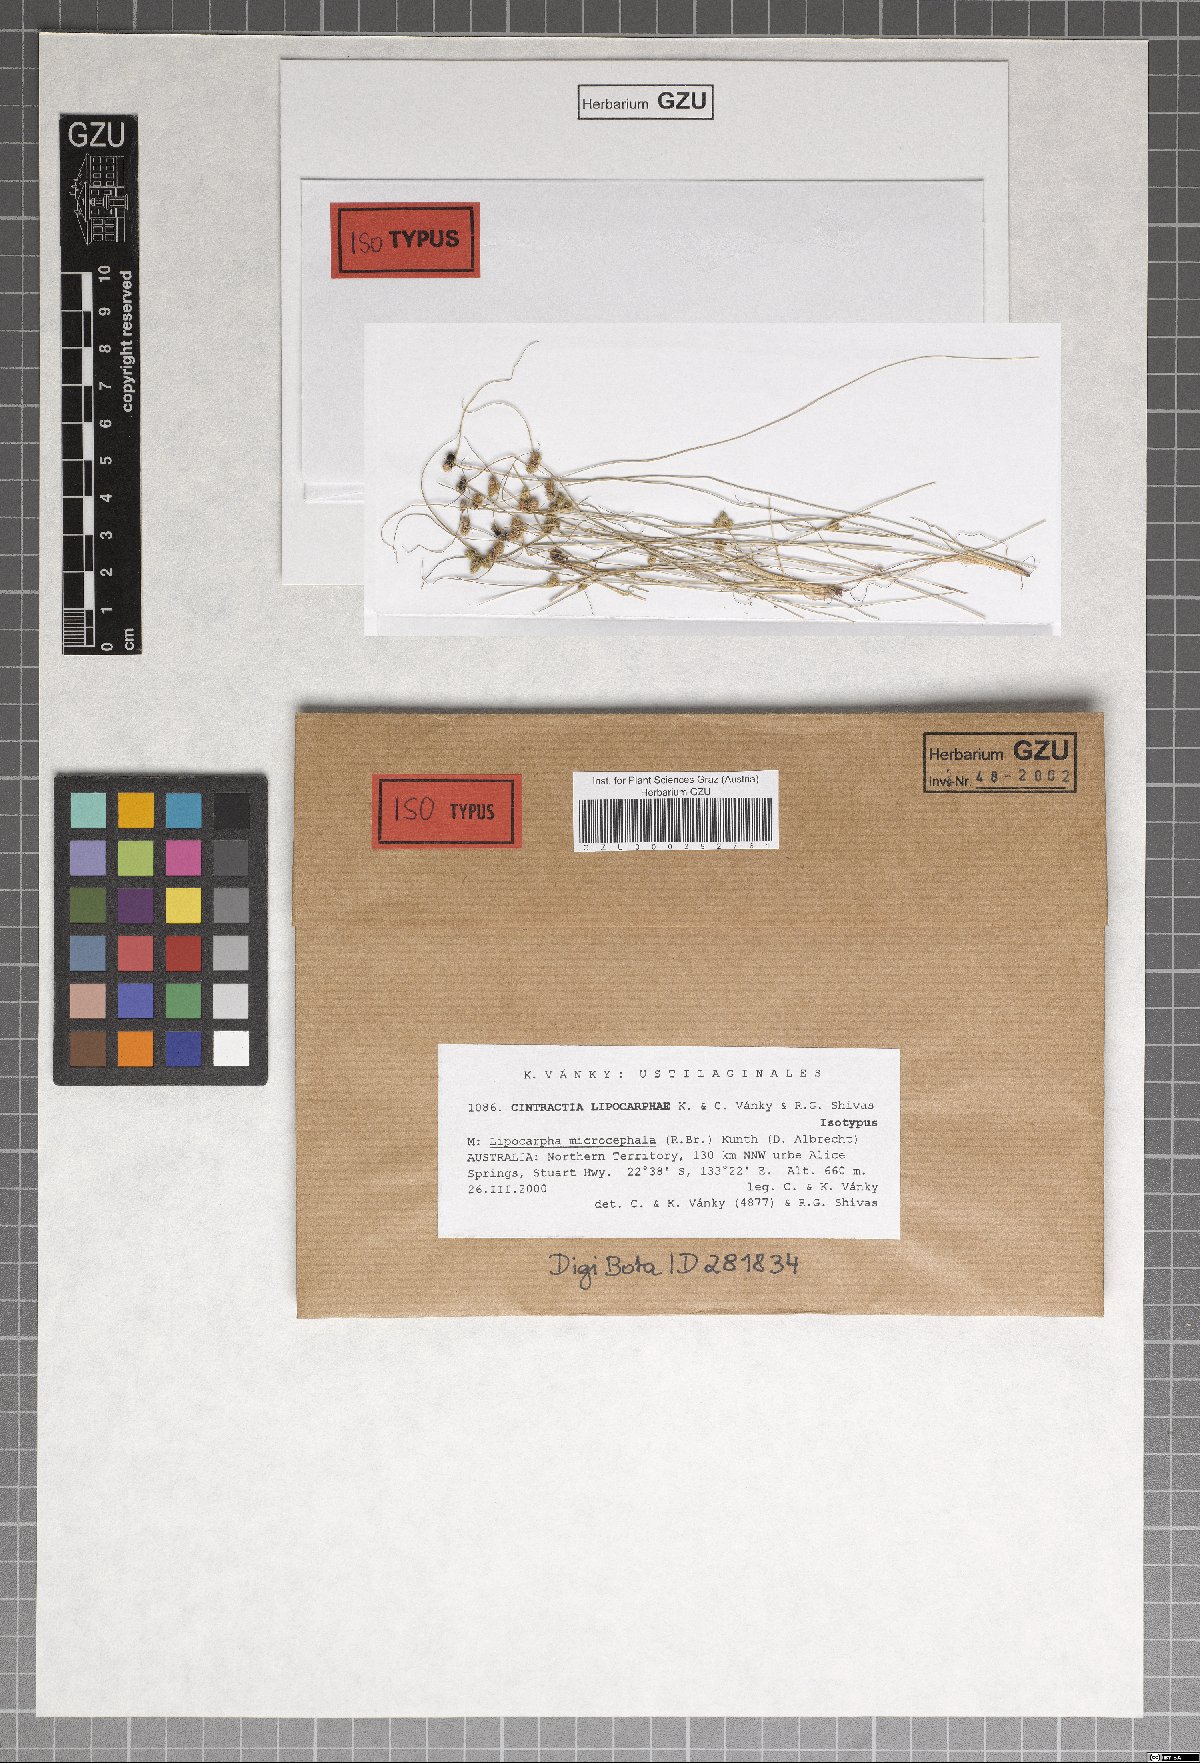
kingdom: Fungi
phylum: Basidiomycota
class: Ustilaginomycetes
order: Ustilaginales
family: Anthracoideaceae
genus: Cintractia
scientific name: Cintractia lipocarphae
